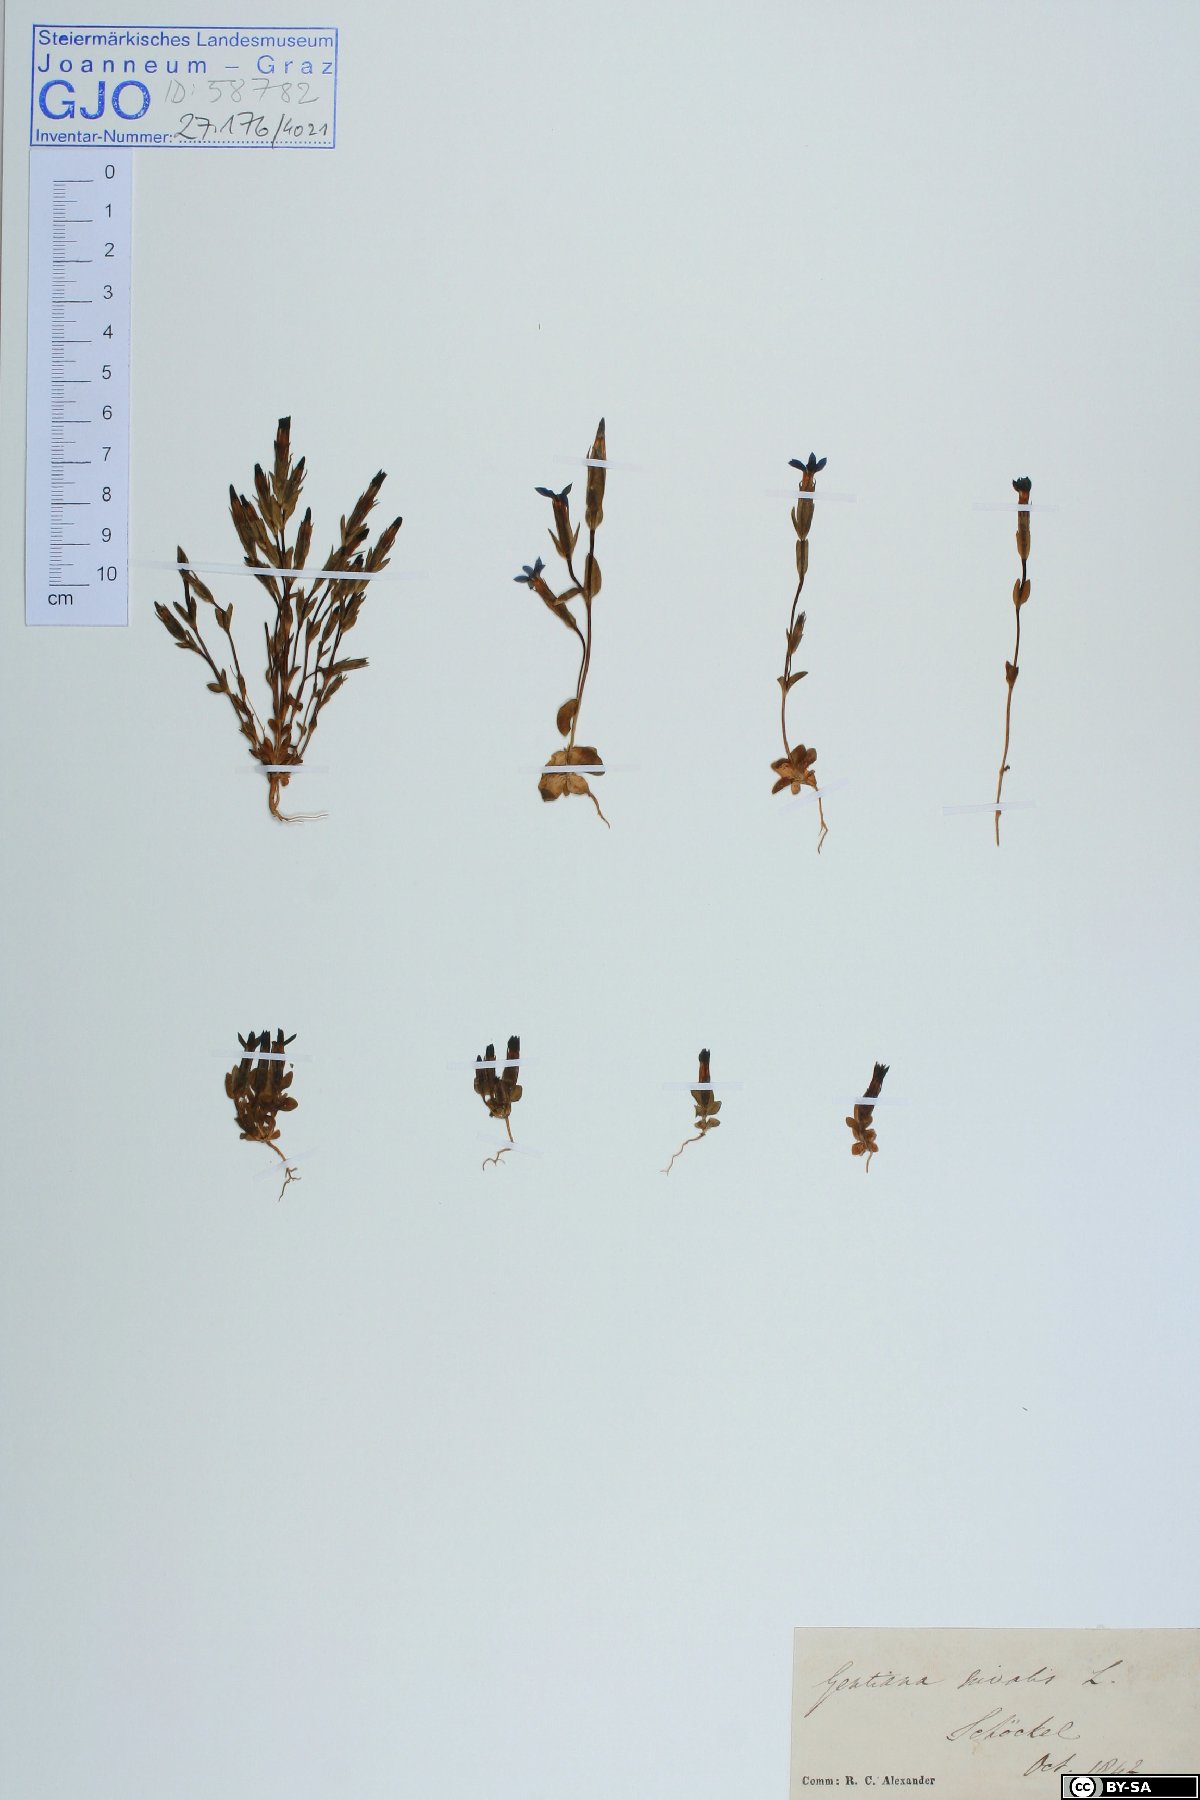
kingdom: Plantae
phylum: Tracheophyta
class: Magnoliopsida
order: Gentianales
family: Gentianaceae
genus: Gentiana
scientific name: Gentiana nivalis
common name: Alpine gentian
